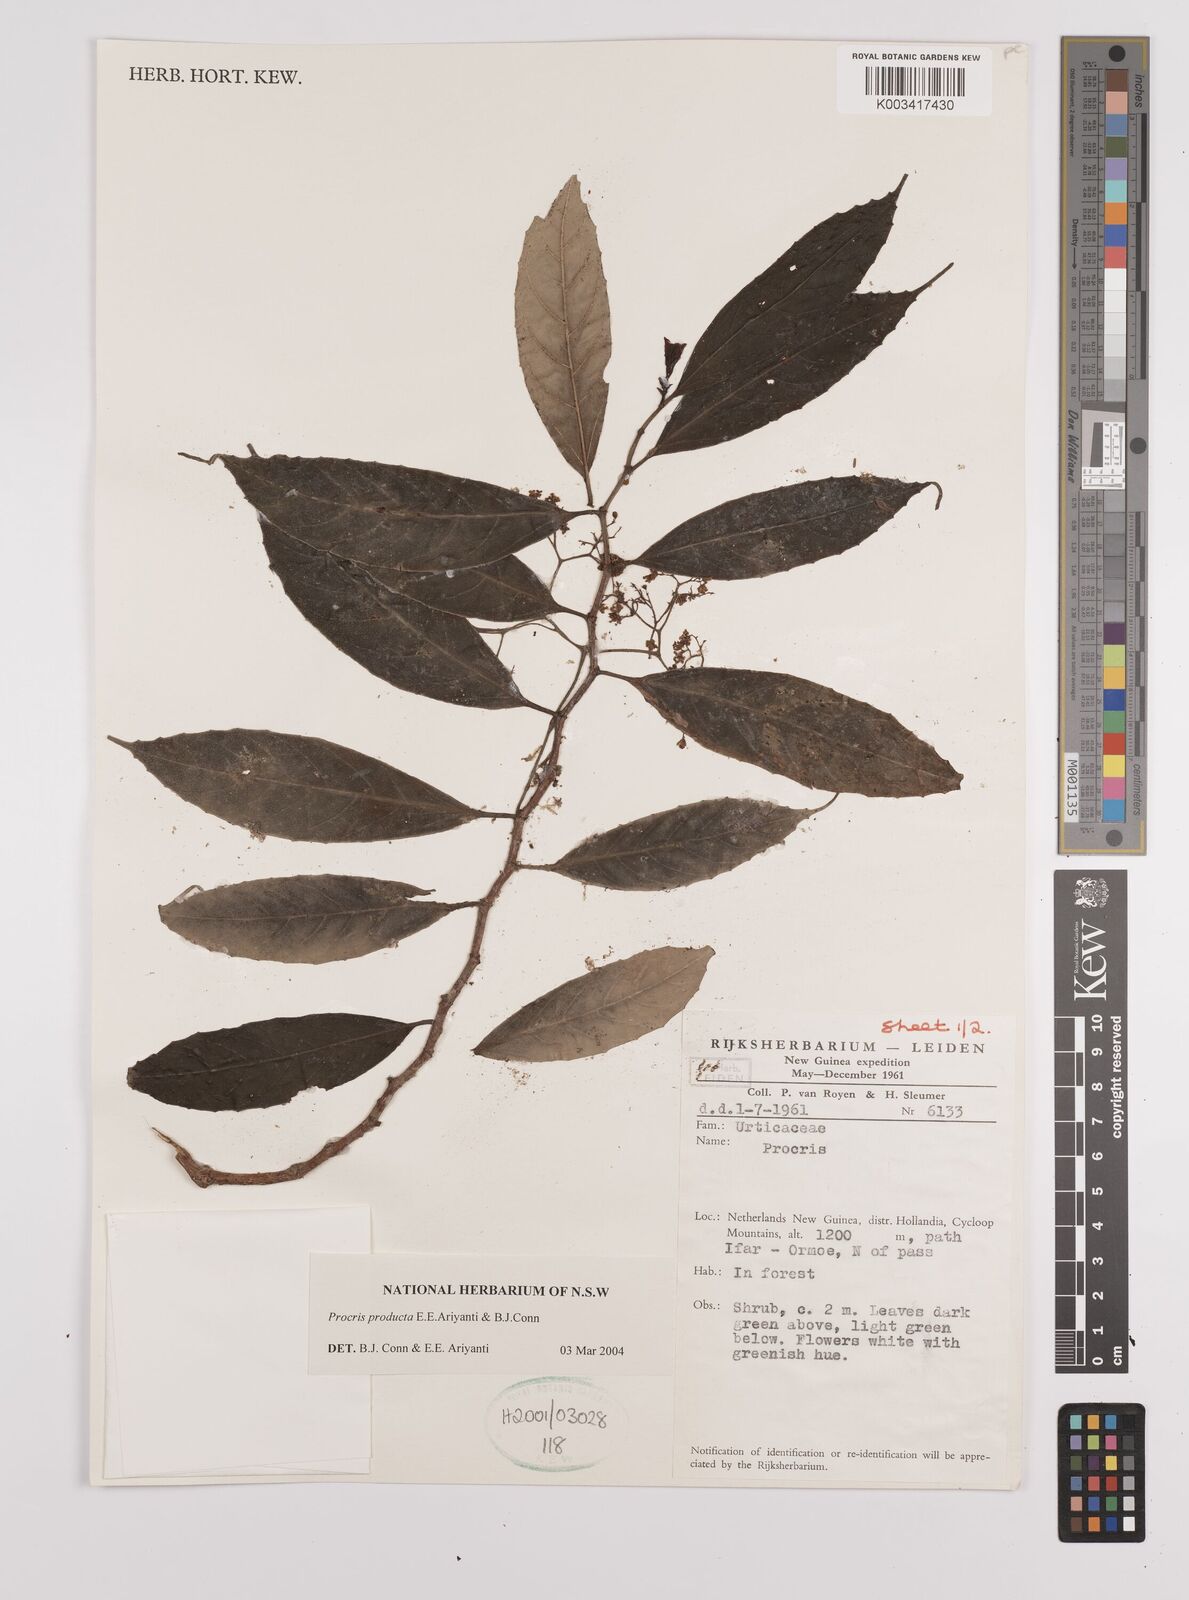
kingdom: Plantae
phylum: Tracheophyta
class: Magnoliopsida
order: Rosales
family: Urticaceae
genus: Procris
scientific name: Procris
